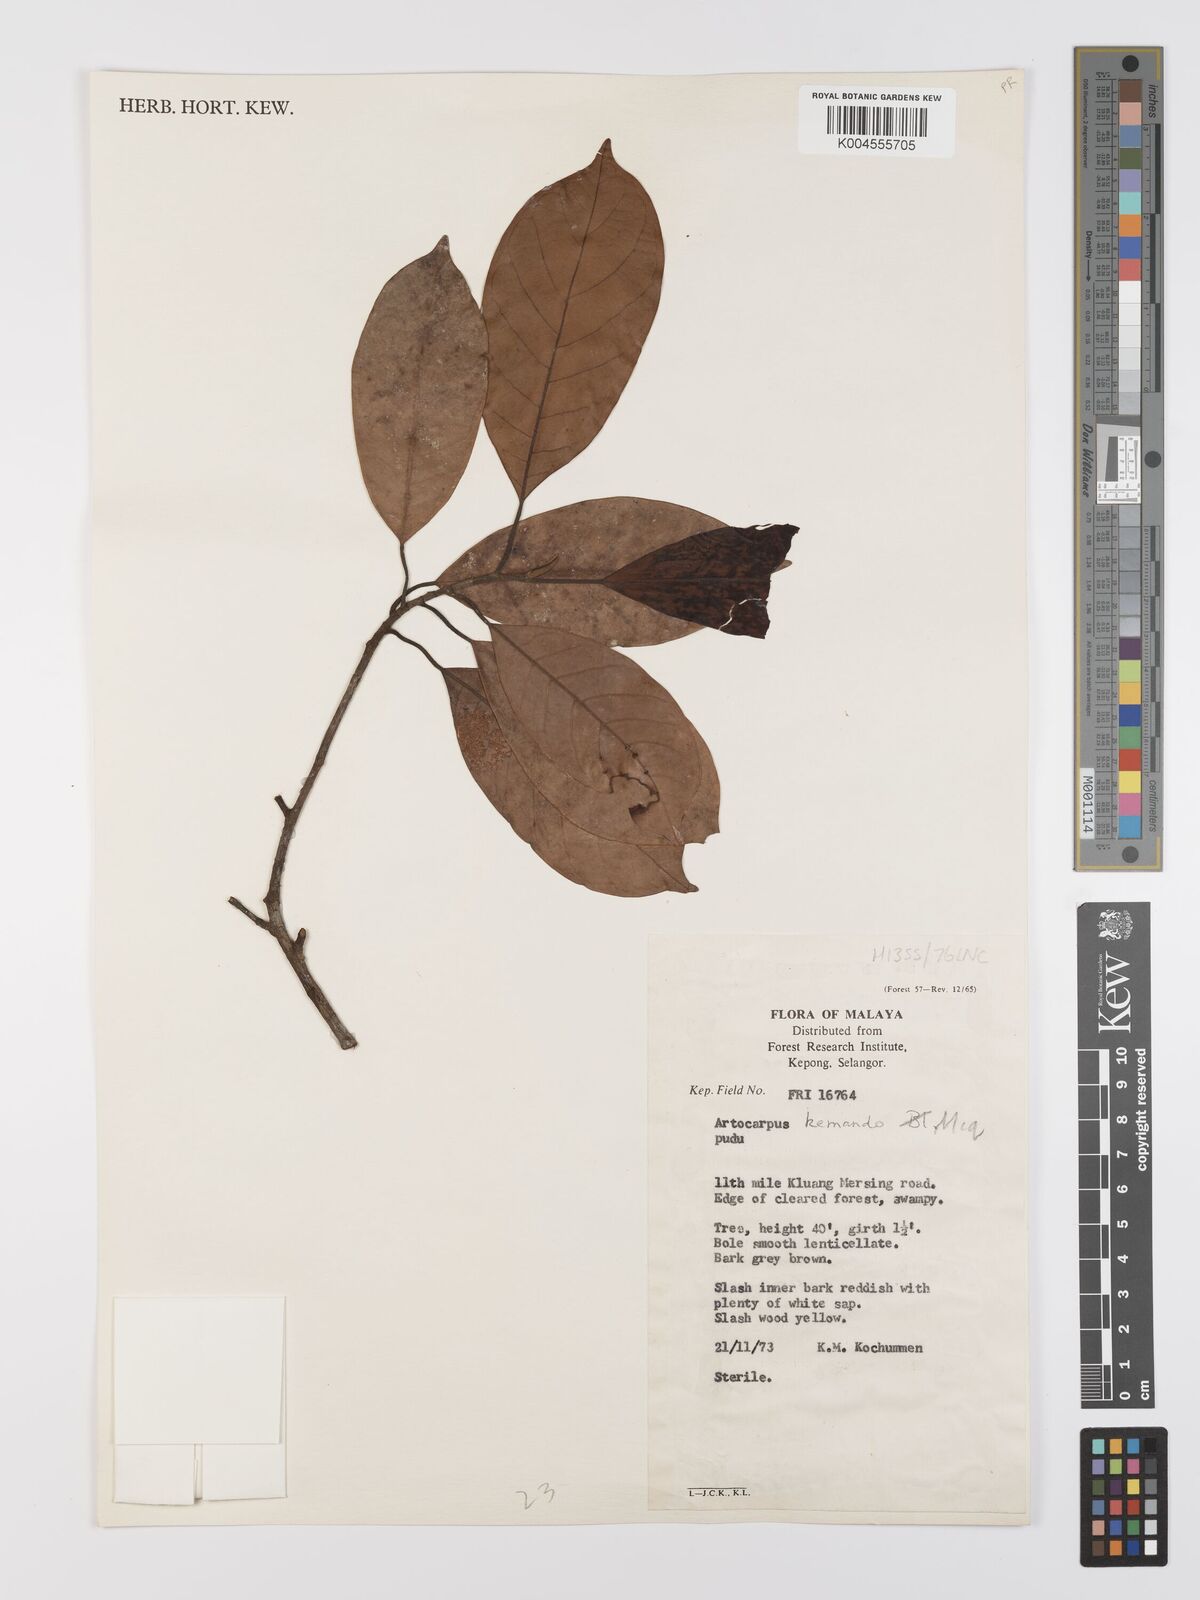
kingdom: Plantae
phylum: Tracheophyta
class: Magnoliopsida
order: Rosales
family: Moraceae
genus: Artocarpus
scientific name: Artocarpus kemando
